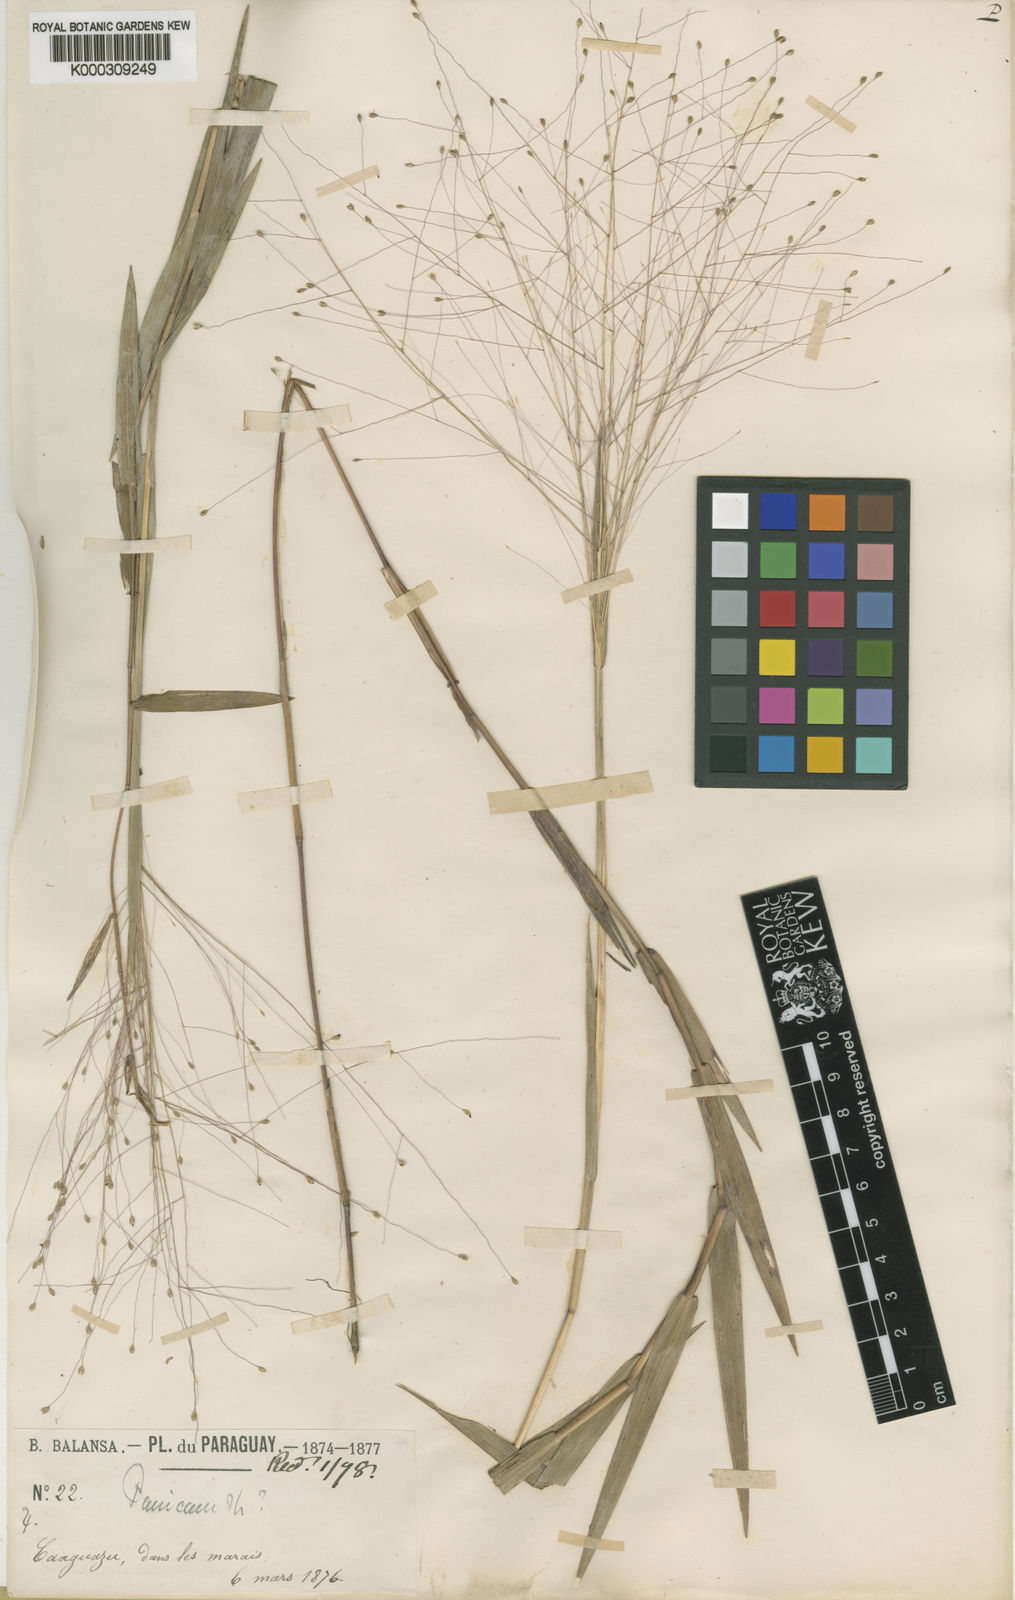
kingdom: Plantae
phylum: Tracheophyta
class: Liliopsida
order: Poales
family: Poaceae
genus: Trichanthecium
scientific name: Trichanthecium caaguazuense
